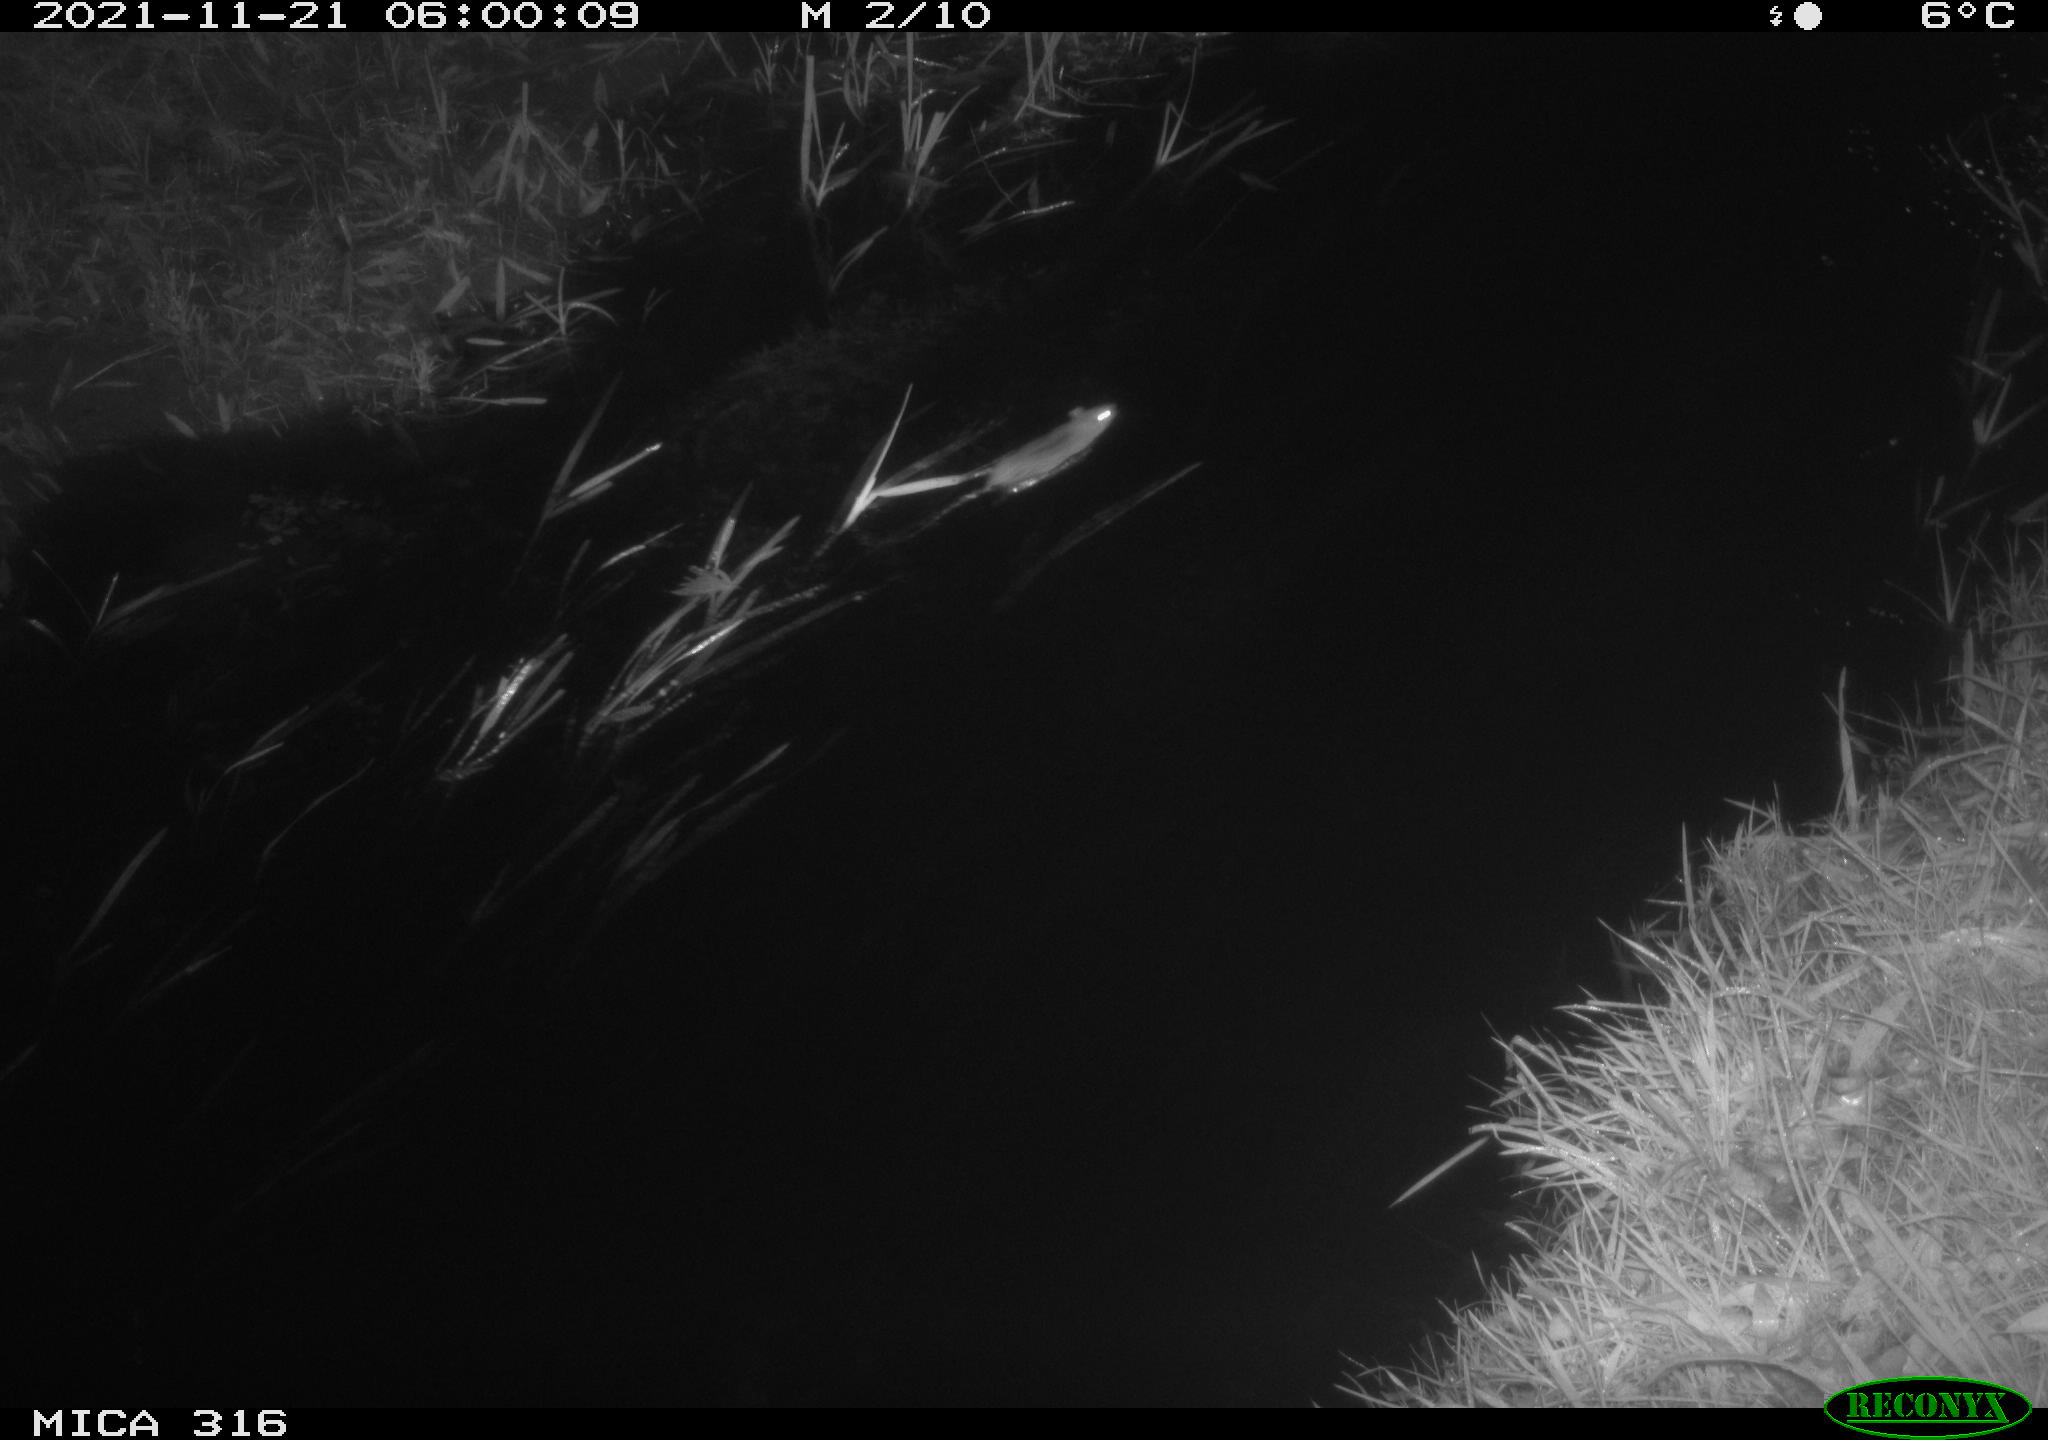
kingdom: Animalia
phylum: Chordata
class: Mammalia
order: Rodentia
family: Muridae
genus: Rattus
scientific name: Rattus norvegicus
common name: Brown rat
